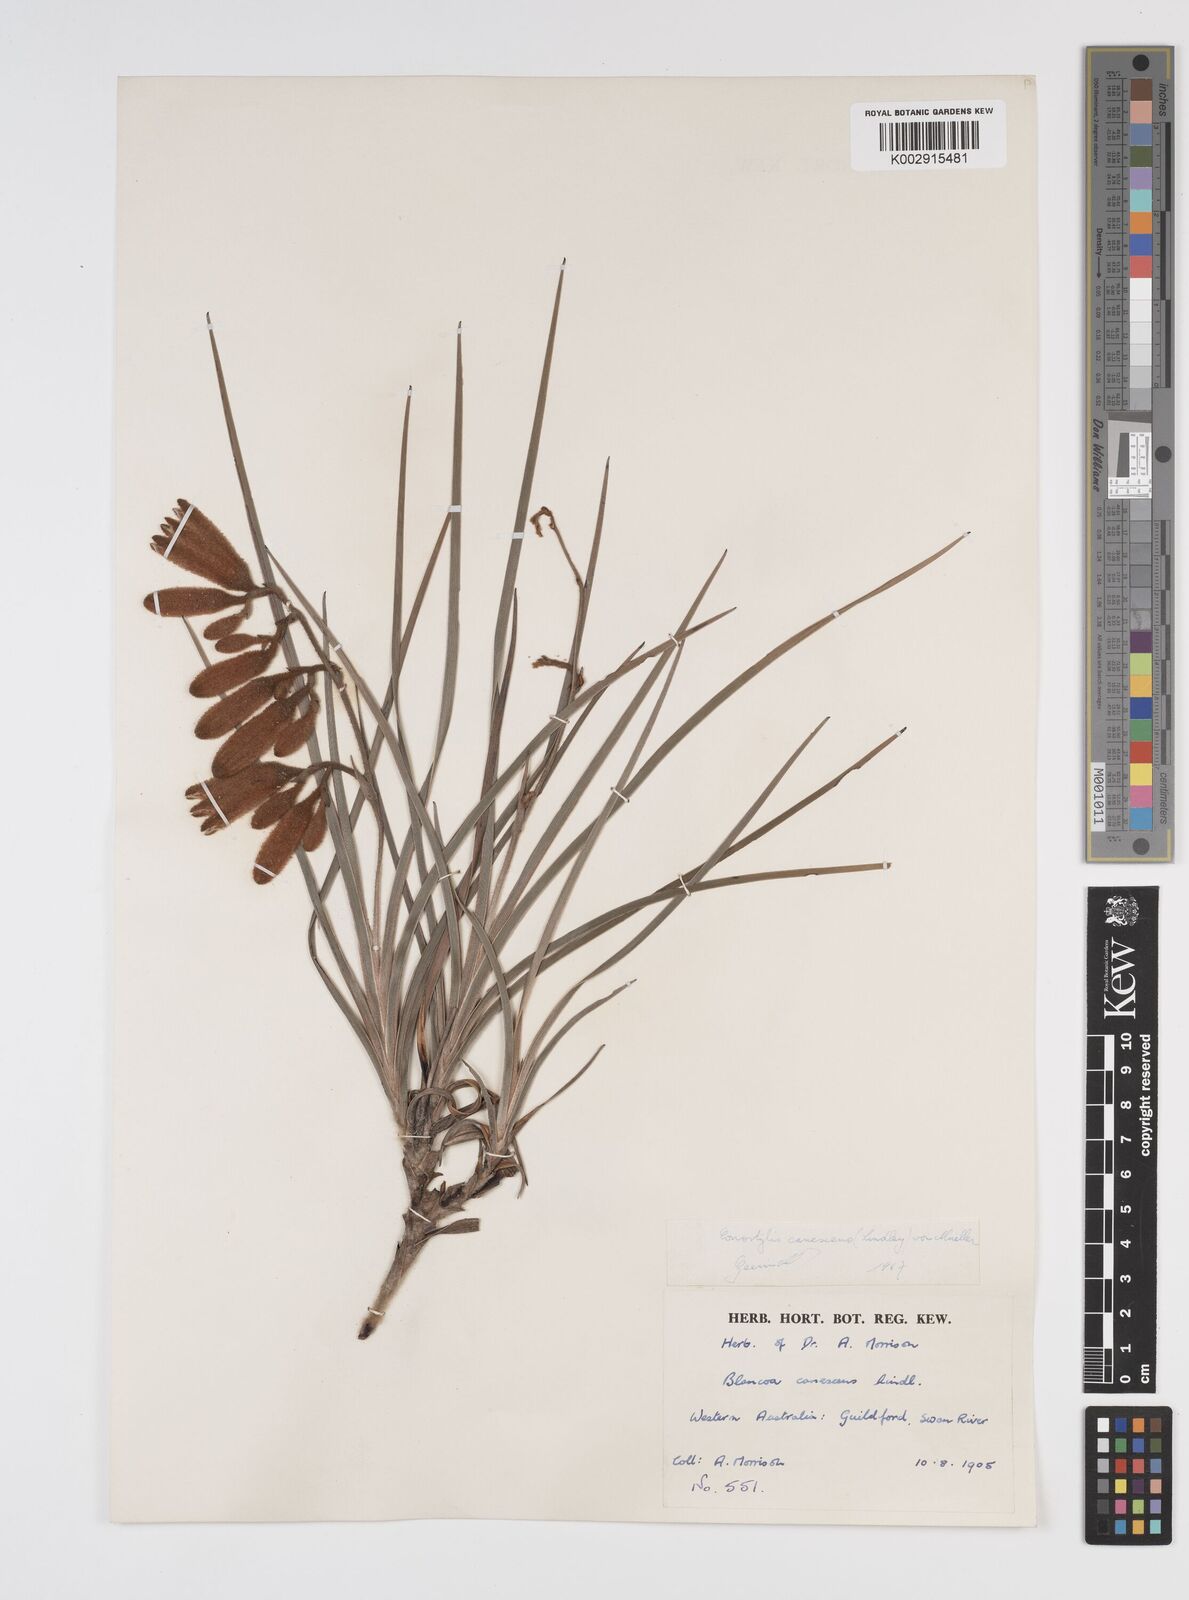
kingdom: Plantae
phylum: Tracheophyta
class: Liliopsida
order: Commelinales
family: Haemodoraceae
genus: Blancoa
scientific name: Blancoa canescens
